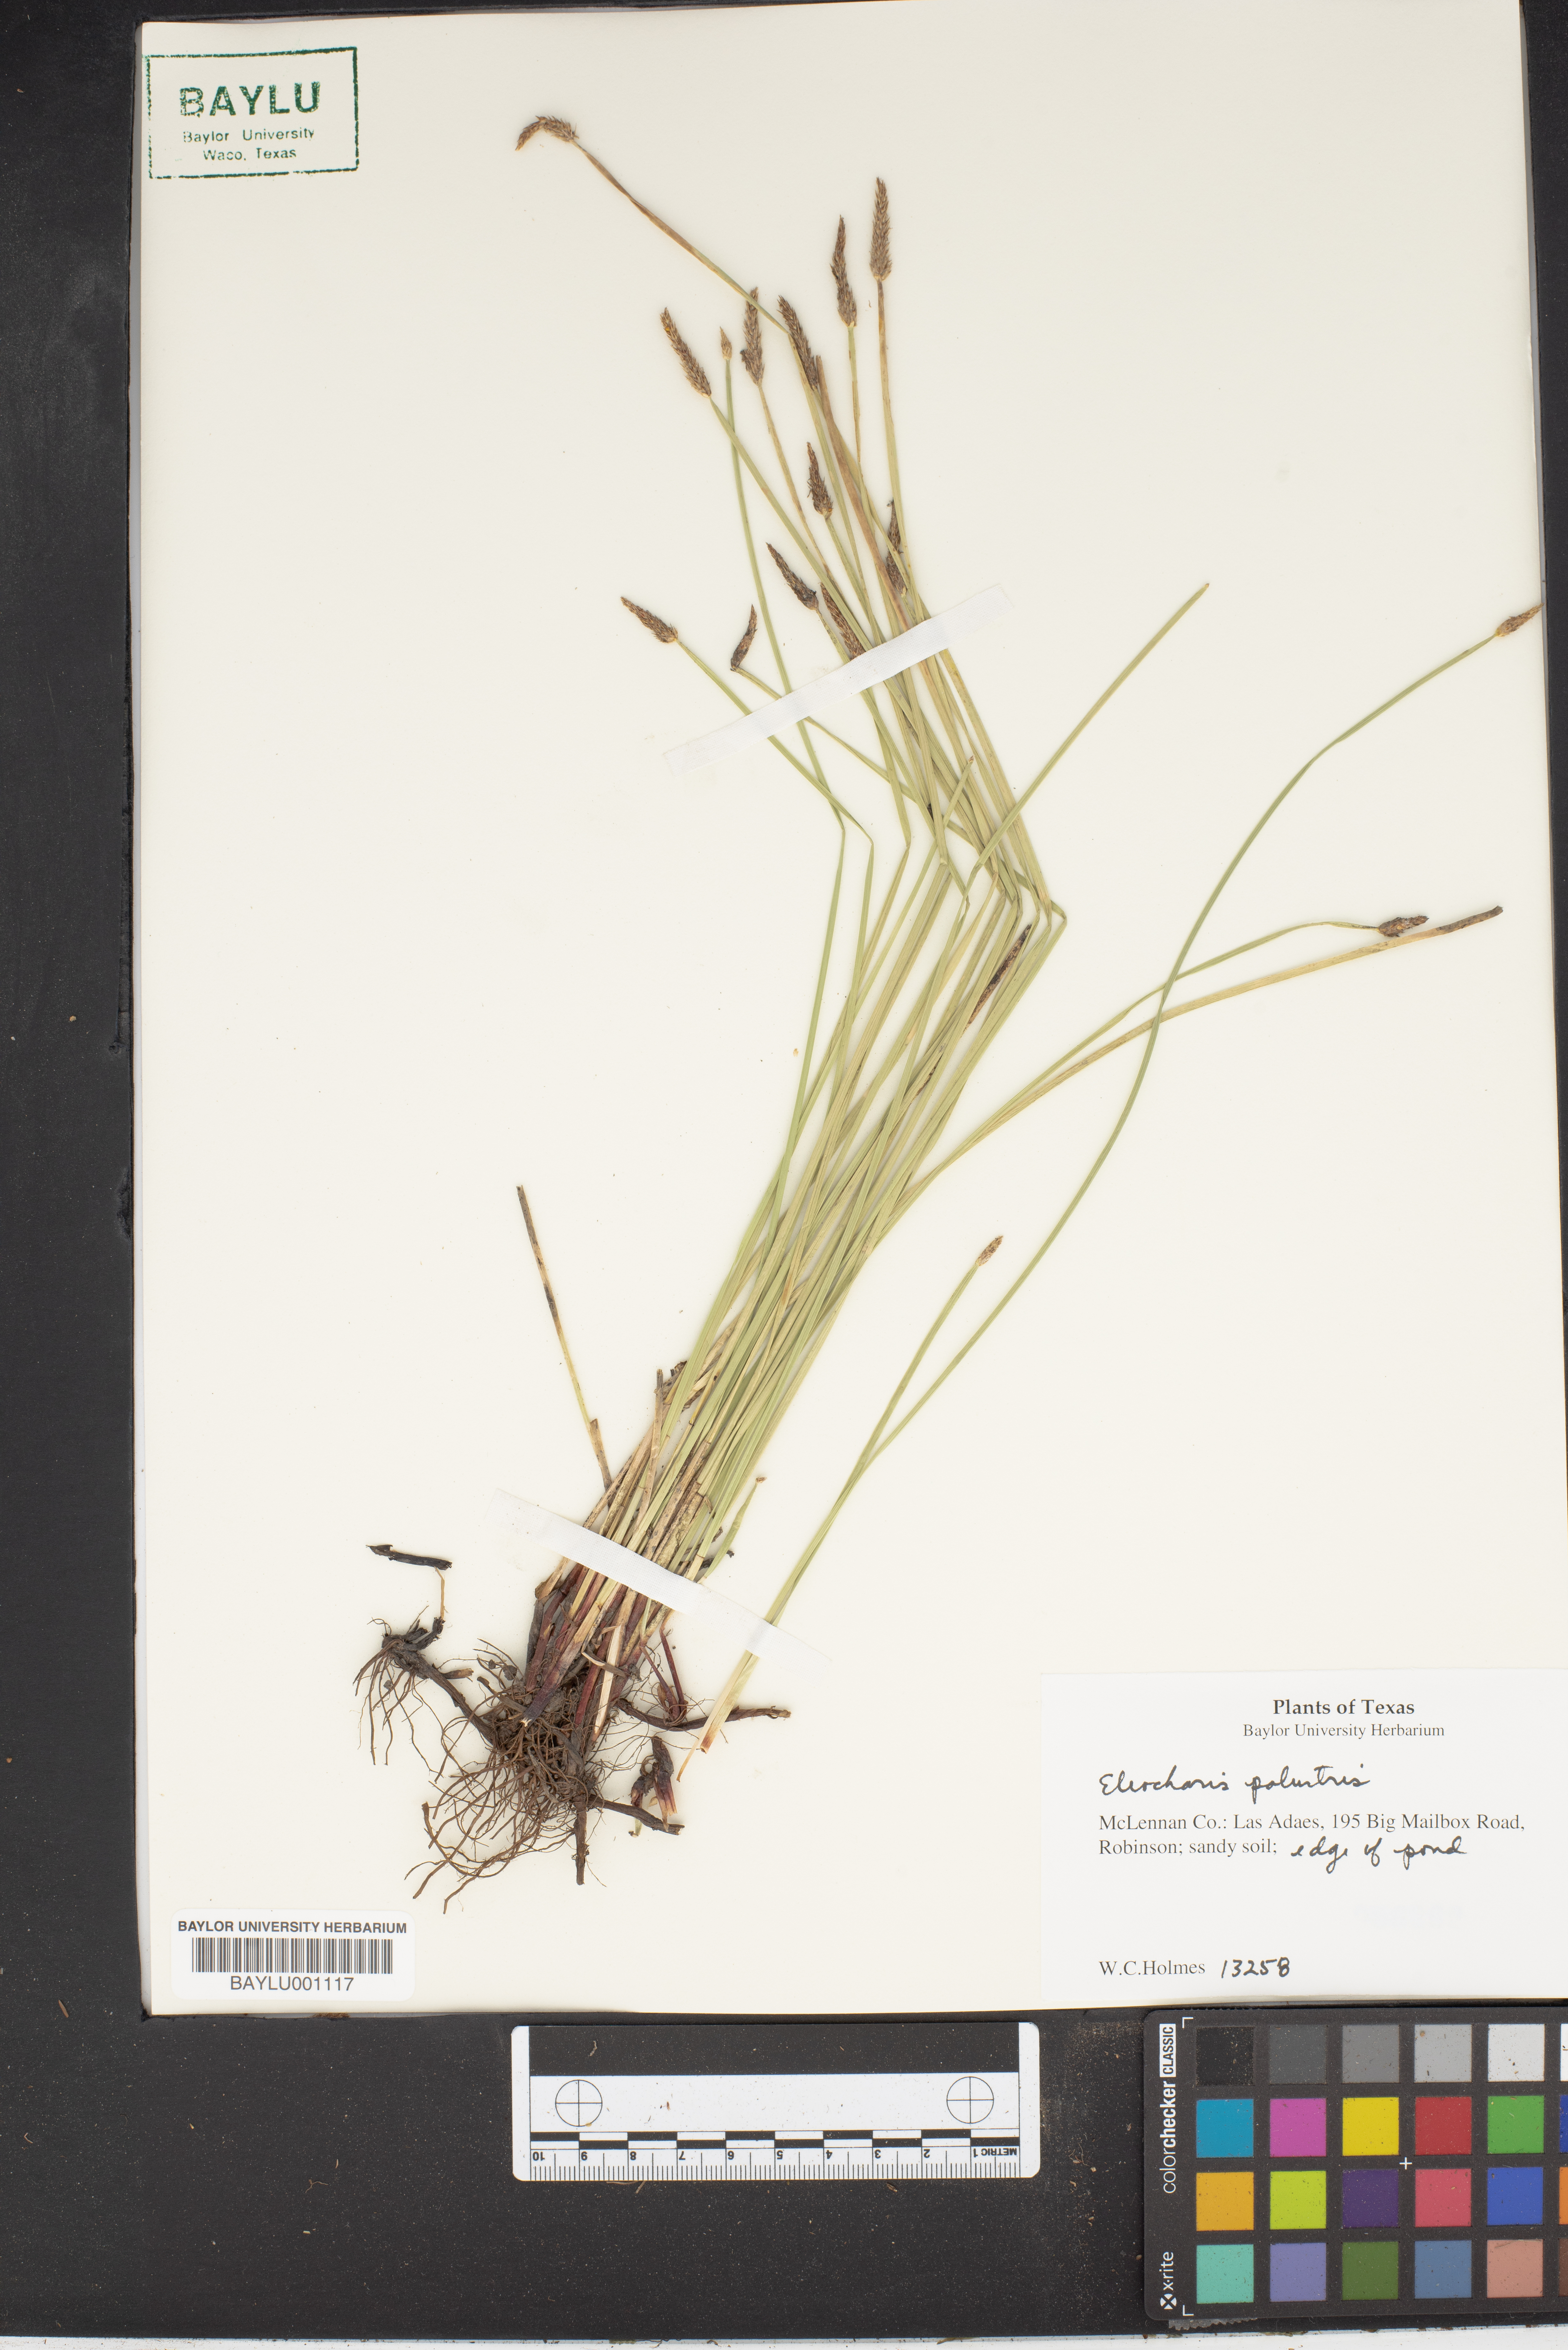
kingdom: Plantae
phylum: Tracheophyta
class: Liliopsida
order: Poales
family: Cyperaceae
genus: Eleocharis
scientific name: Eleocharis palustris
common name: Common spike-rush
